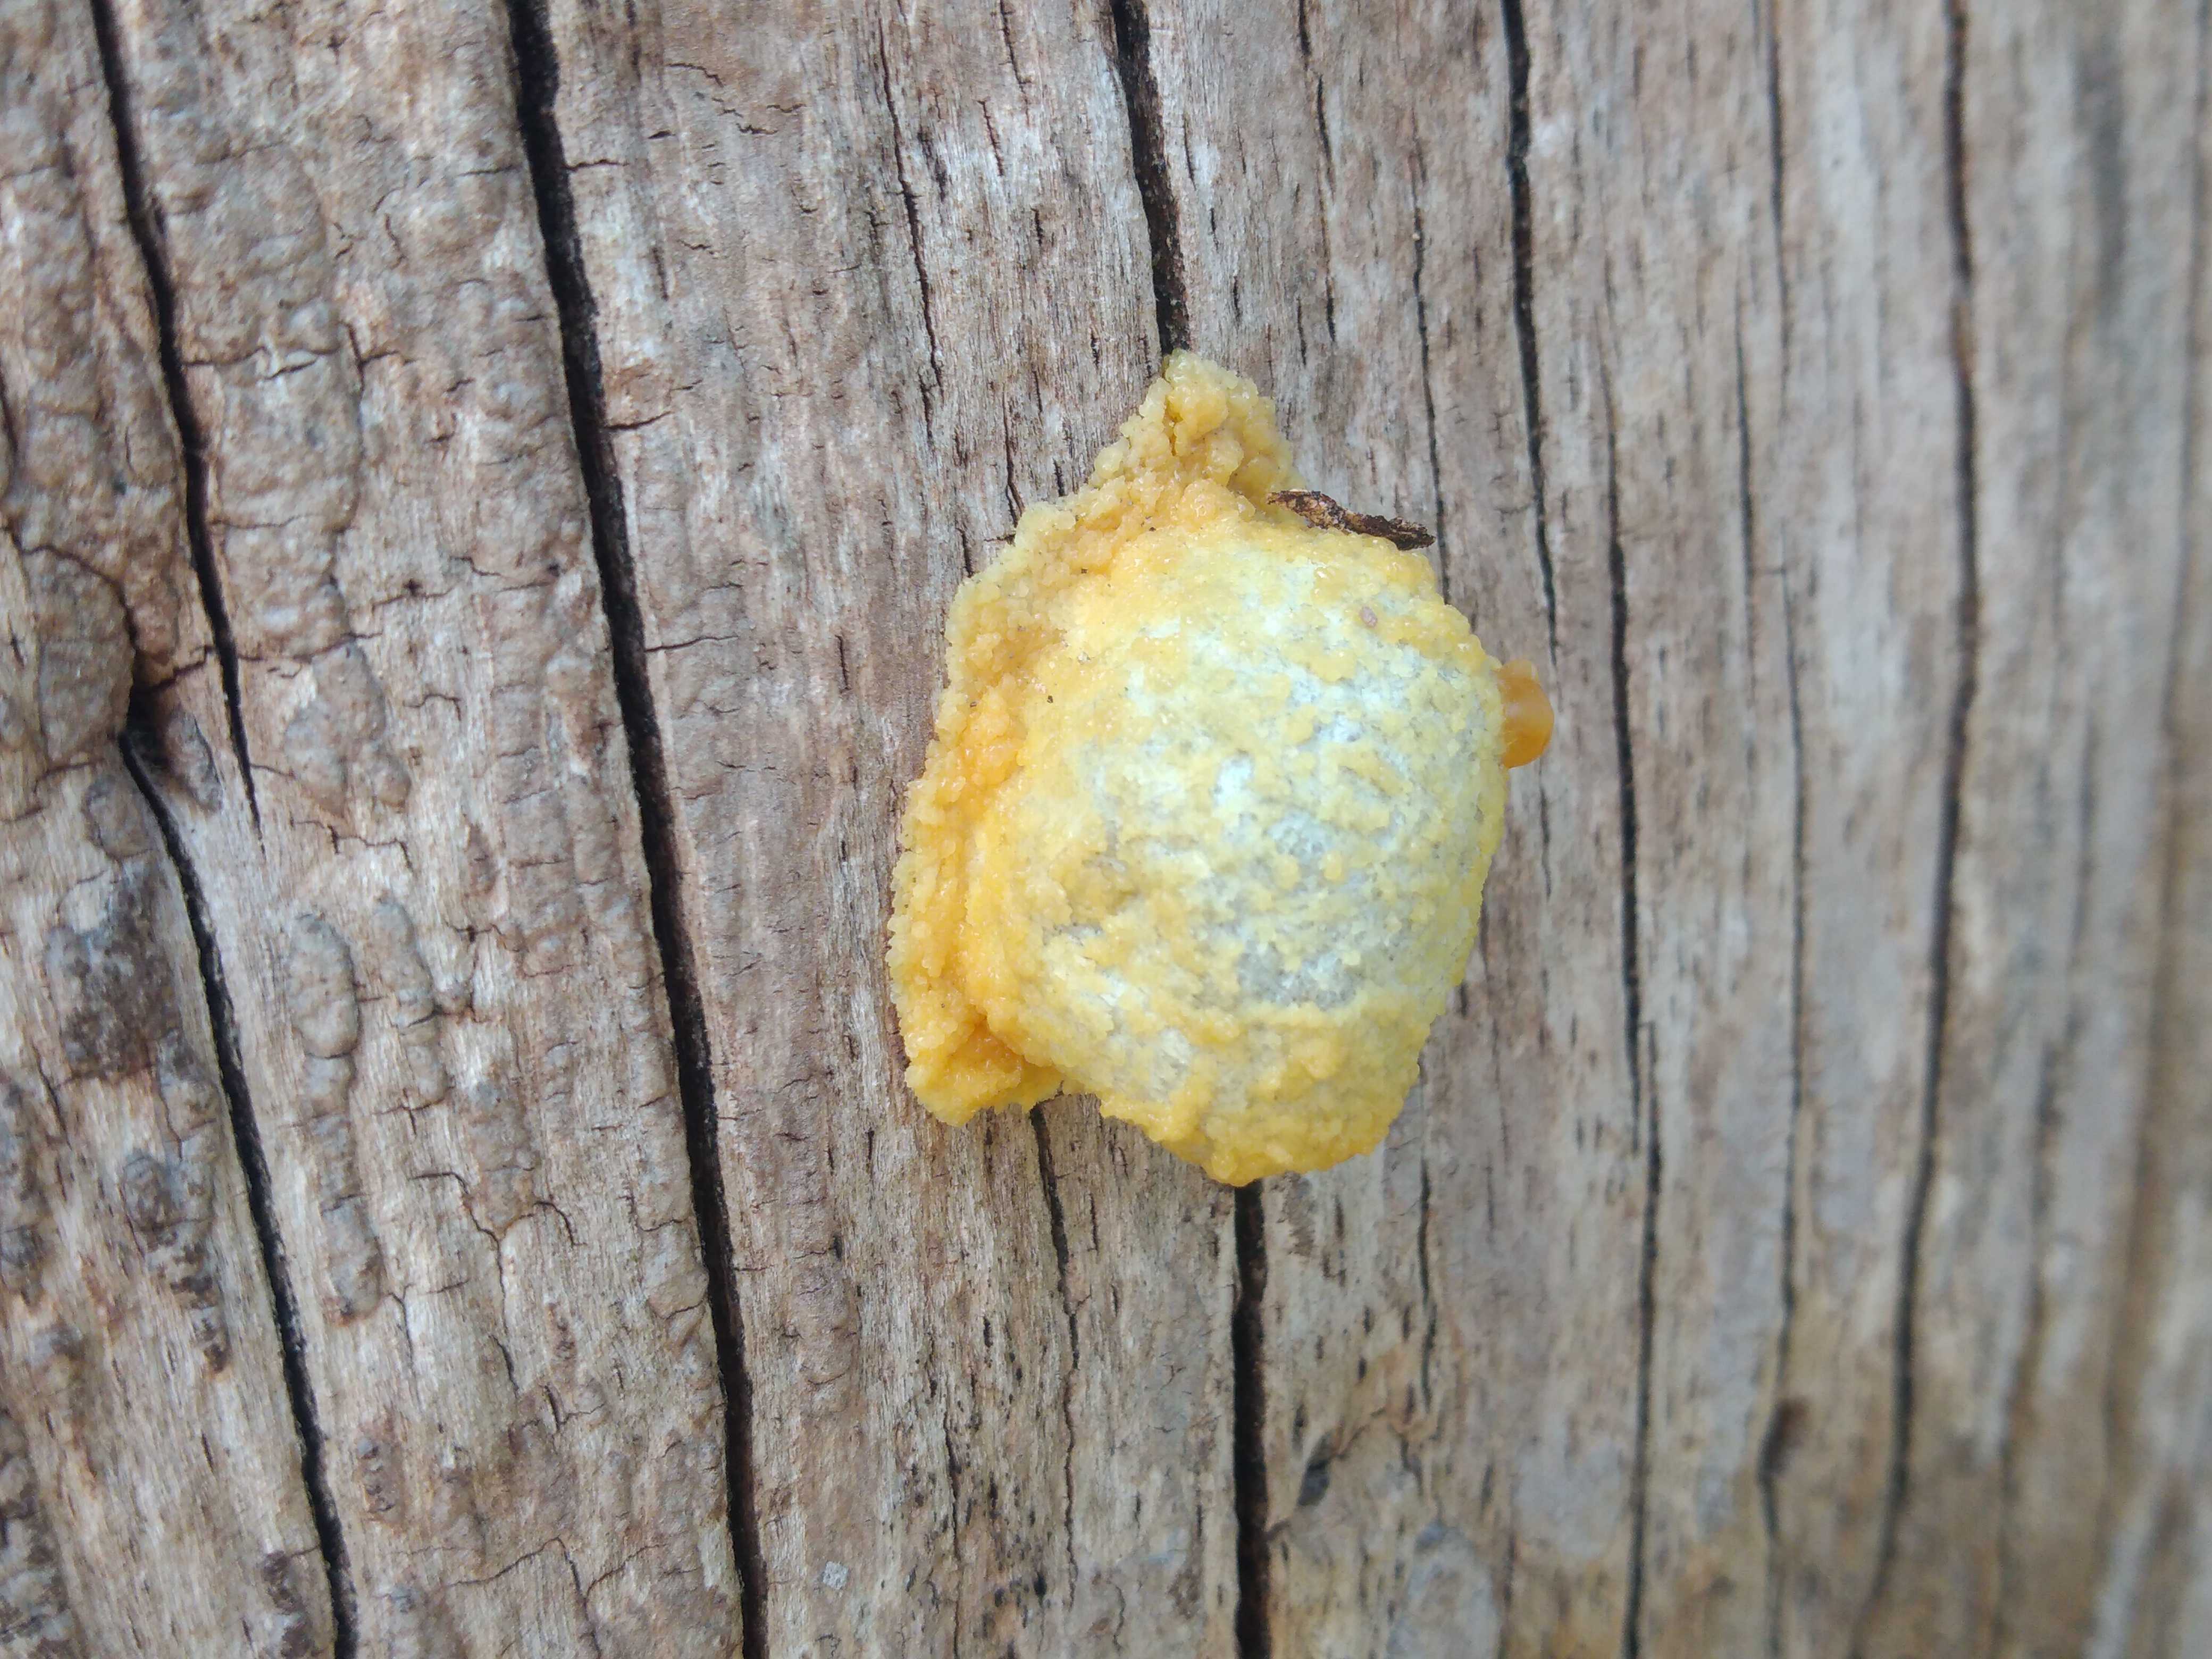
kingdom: Protozoa
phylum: Mycetozoa
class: Myxomycetes
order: Cribrariales
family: Tubiferaceae
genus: Reticularia
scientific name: Reticularia lycoperdon
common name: skinnende støvpude
